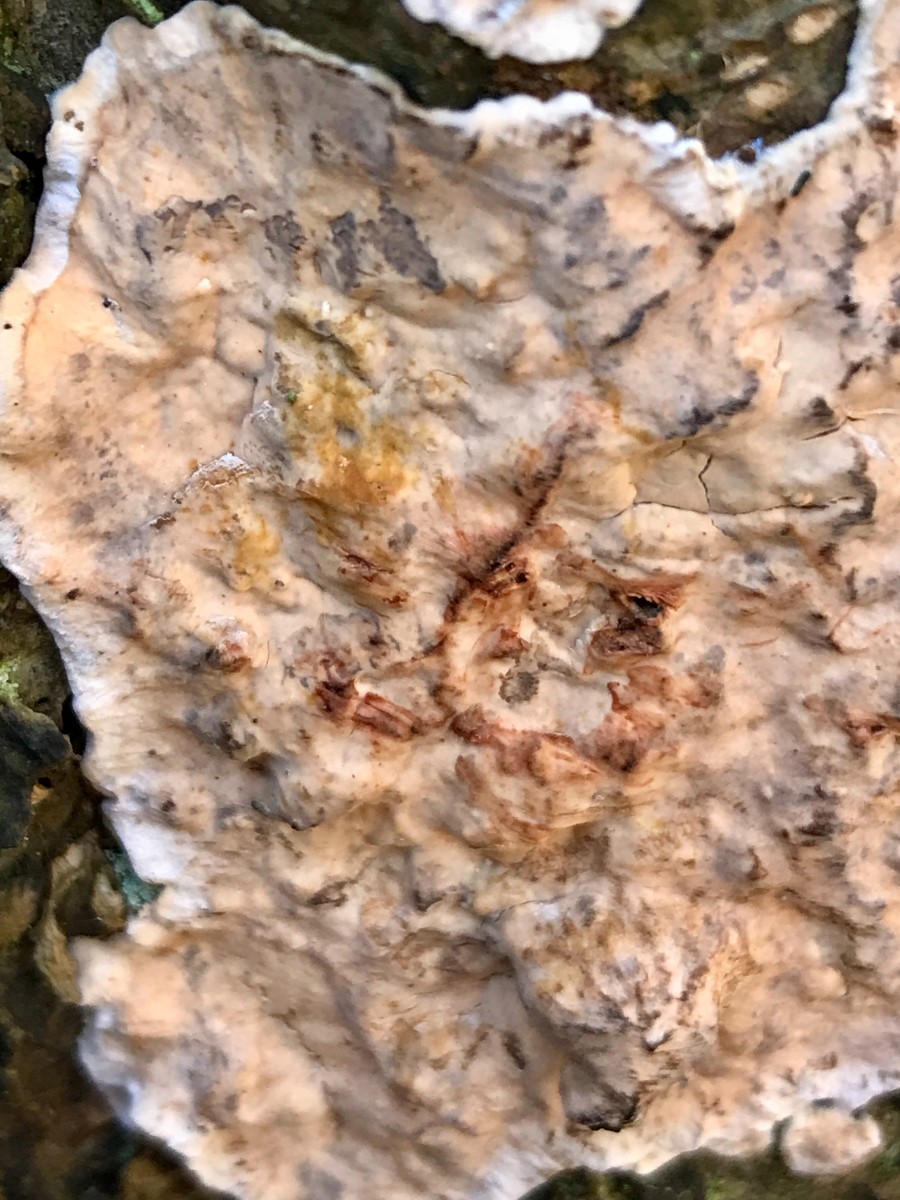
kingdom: Fungi
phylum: Basidiomycota
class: Agaricomycetes
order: Russulales
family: Stereaceae
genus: Stereum
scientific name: Stereum rugosum
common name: rynket lædersvamp
